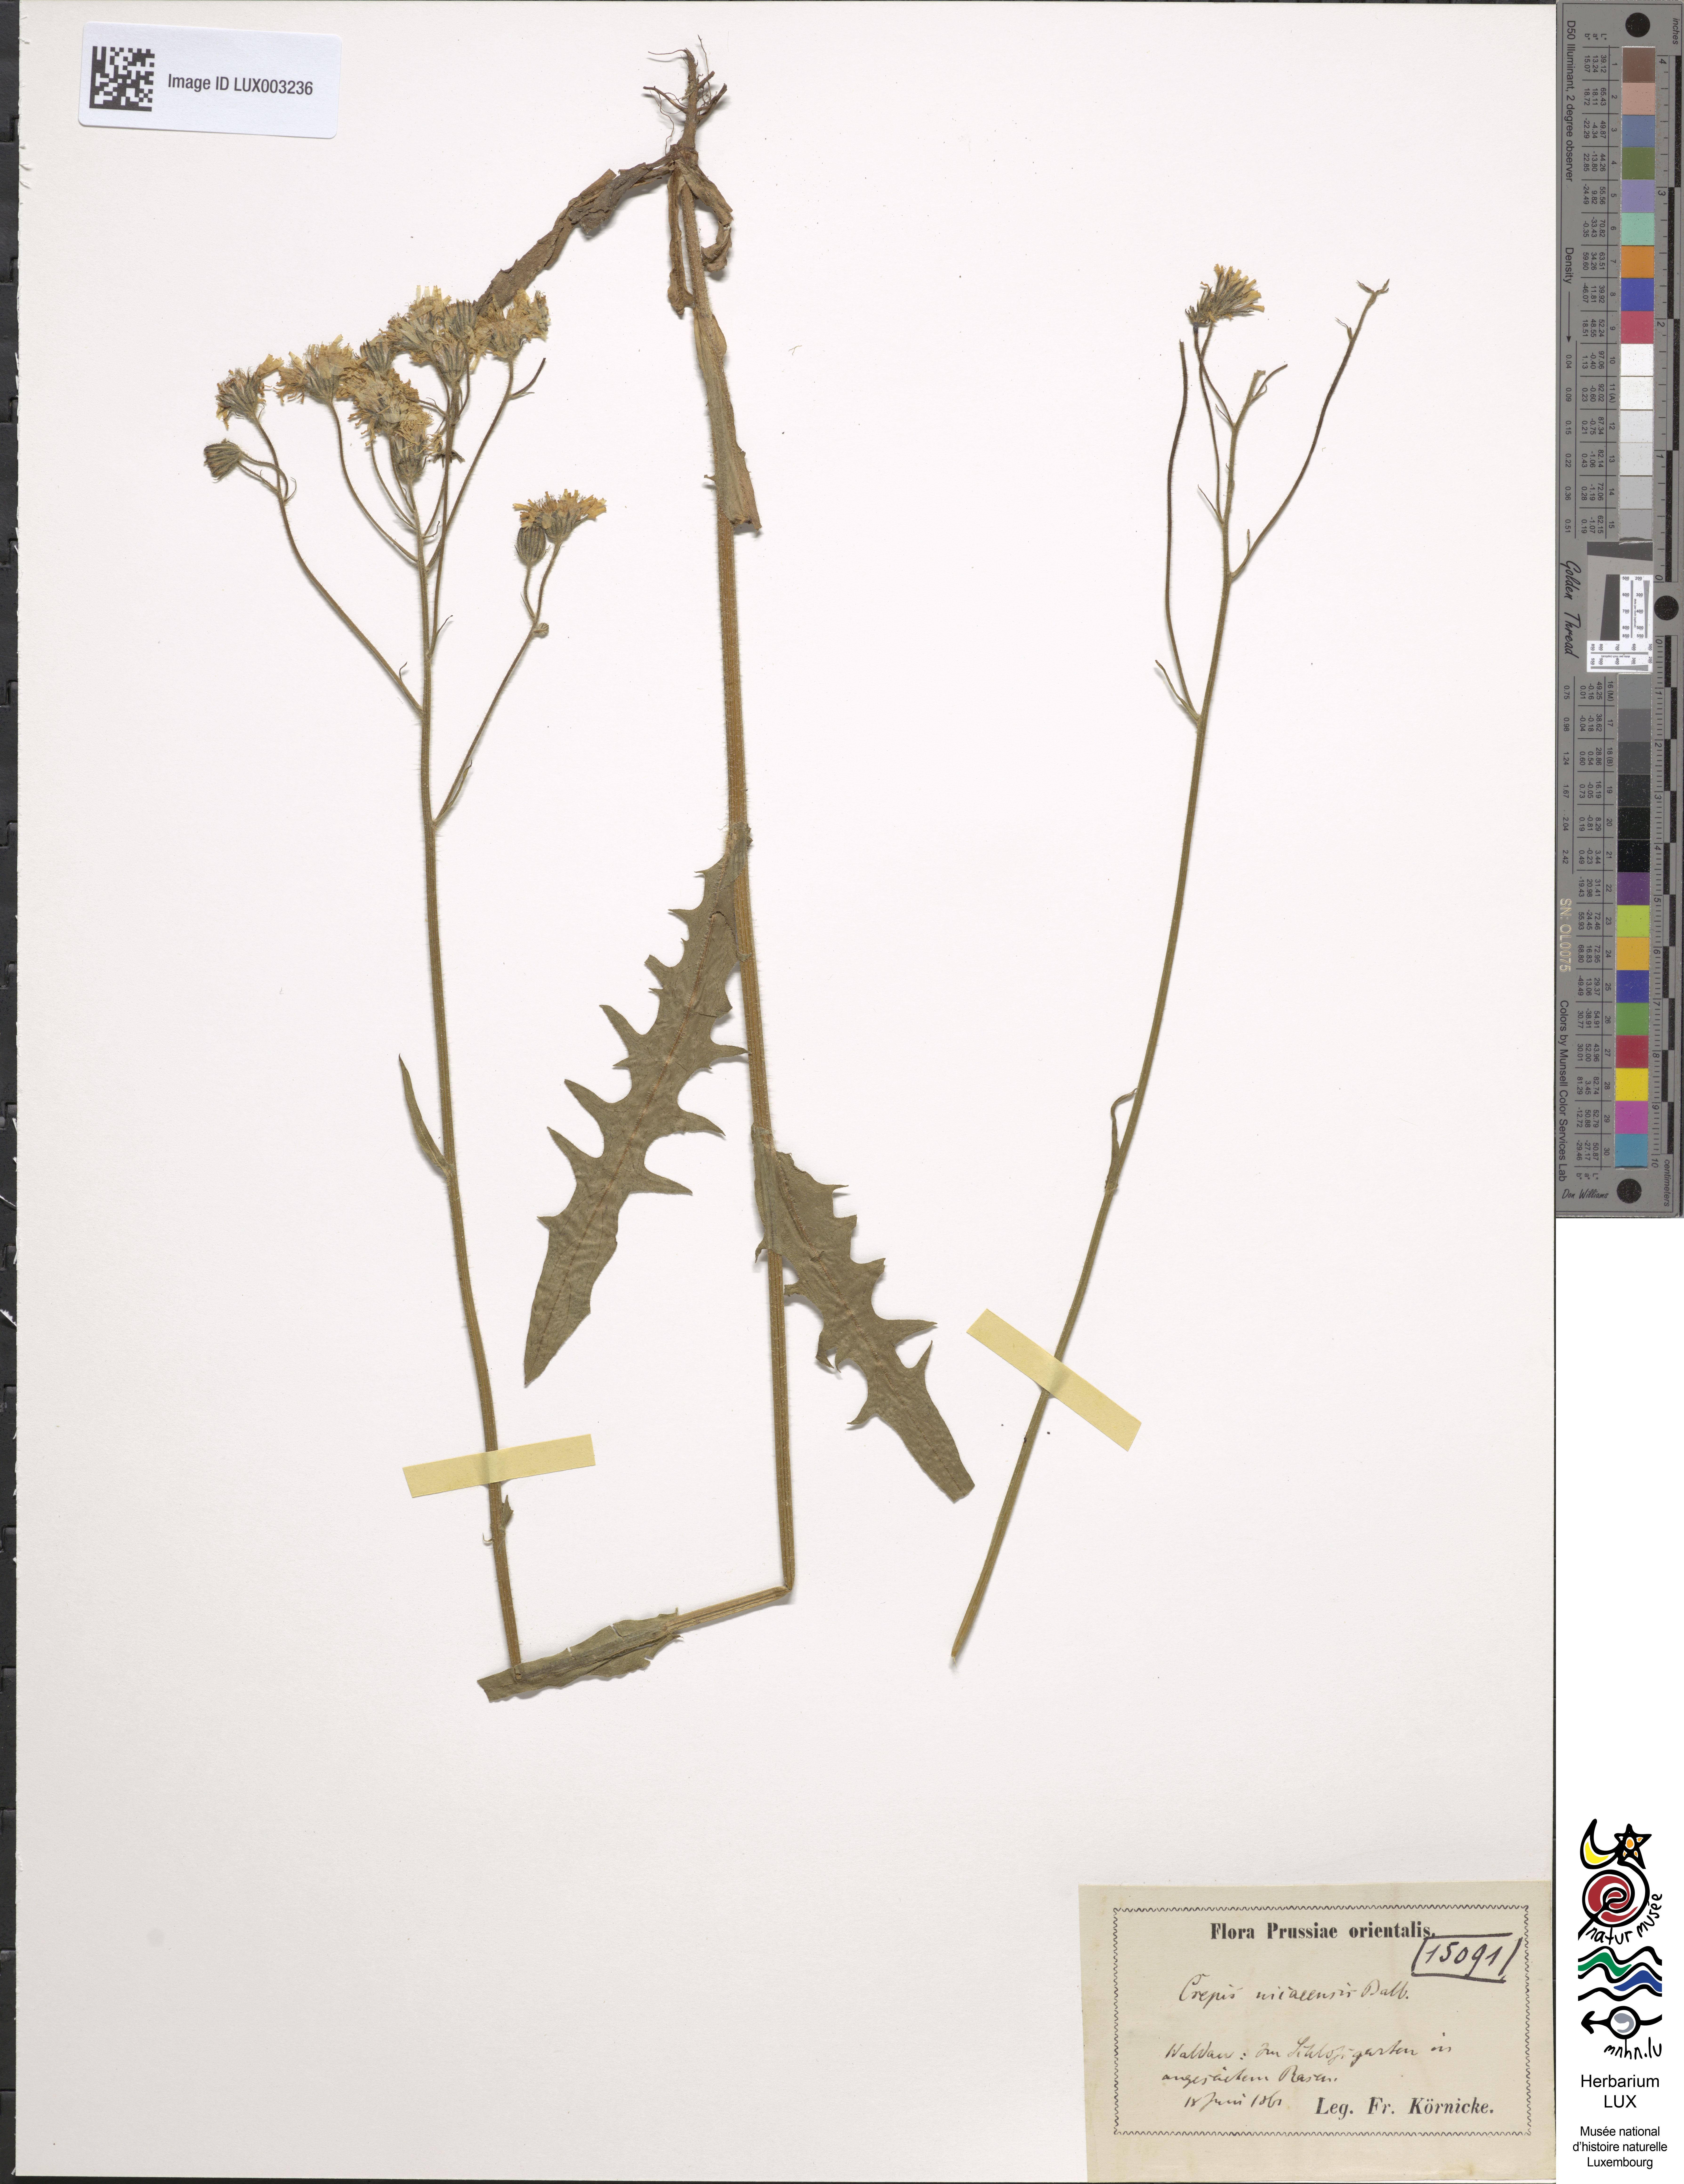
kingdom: Plantae
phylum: Tracheophyta
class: Magnoliopsida
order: Asterales
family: Asteraceae
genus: Crepis
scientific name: Crepis nicaeensis
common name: Turkish hawksbeard
